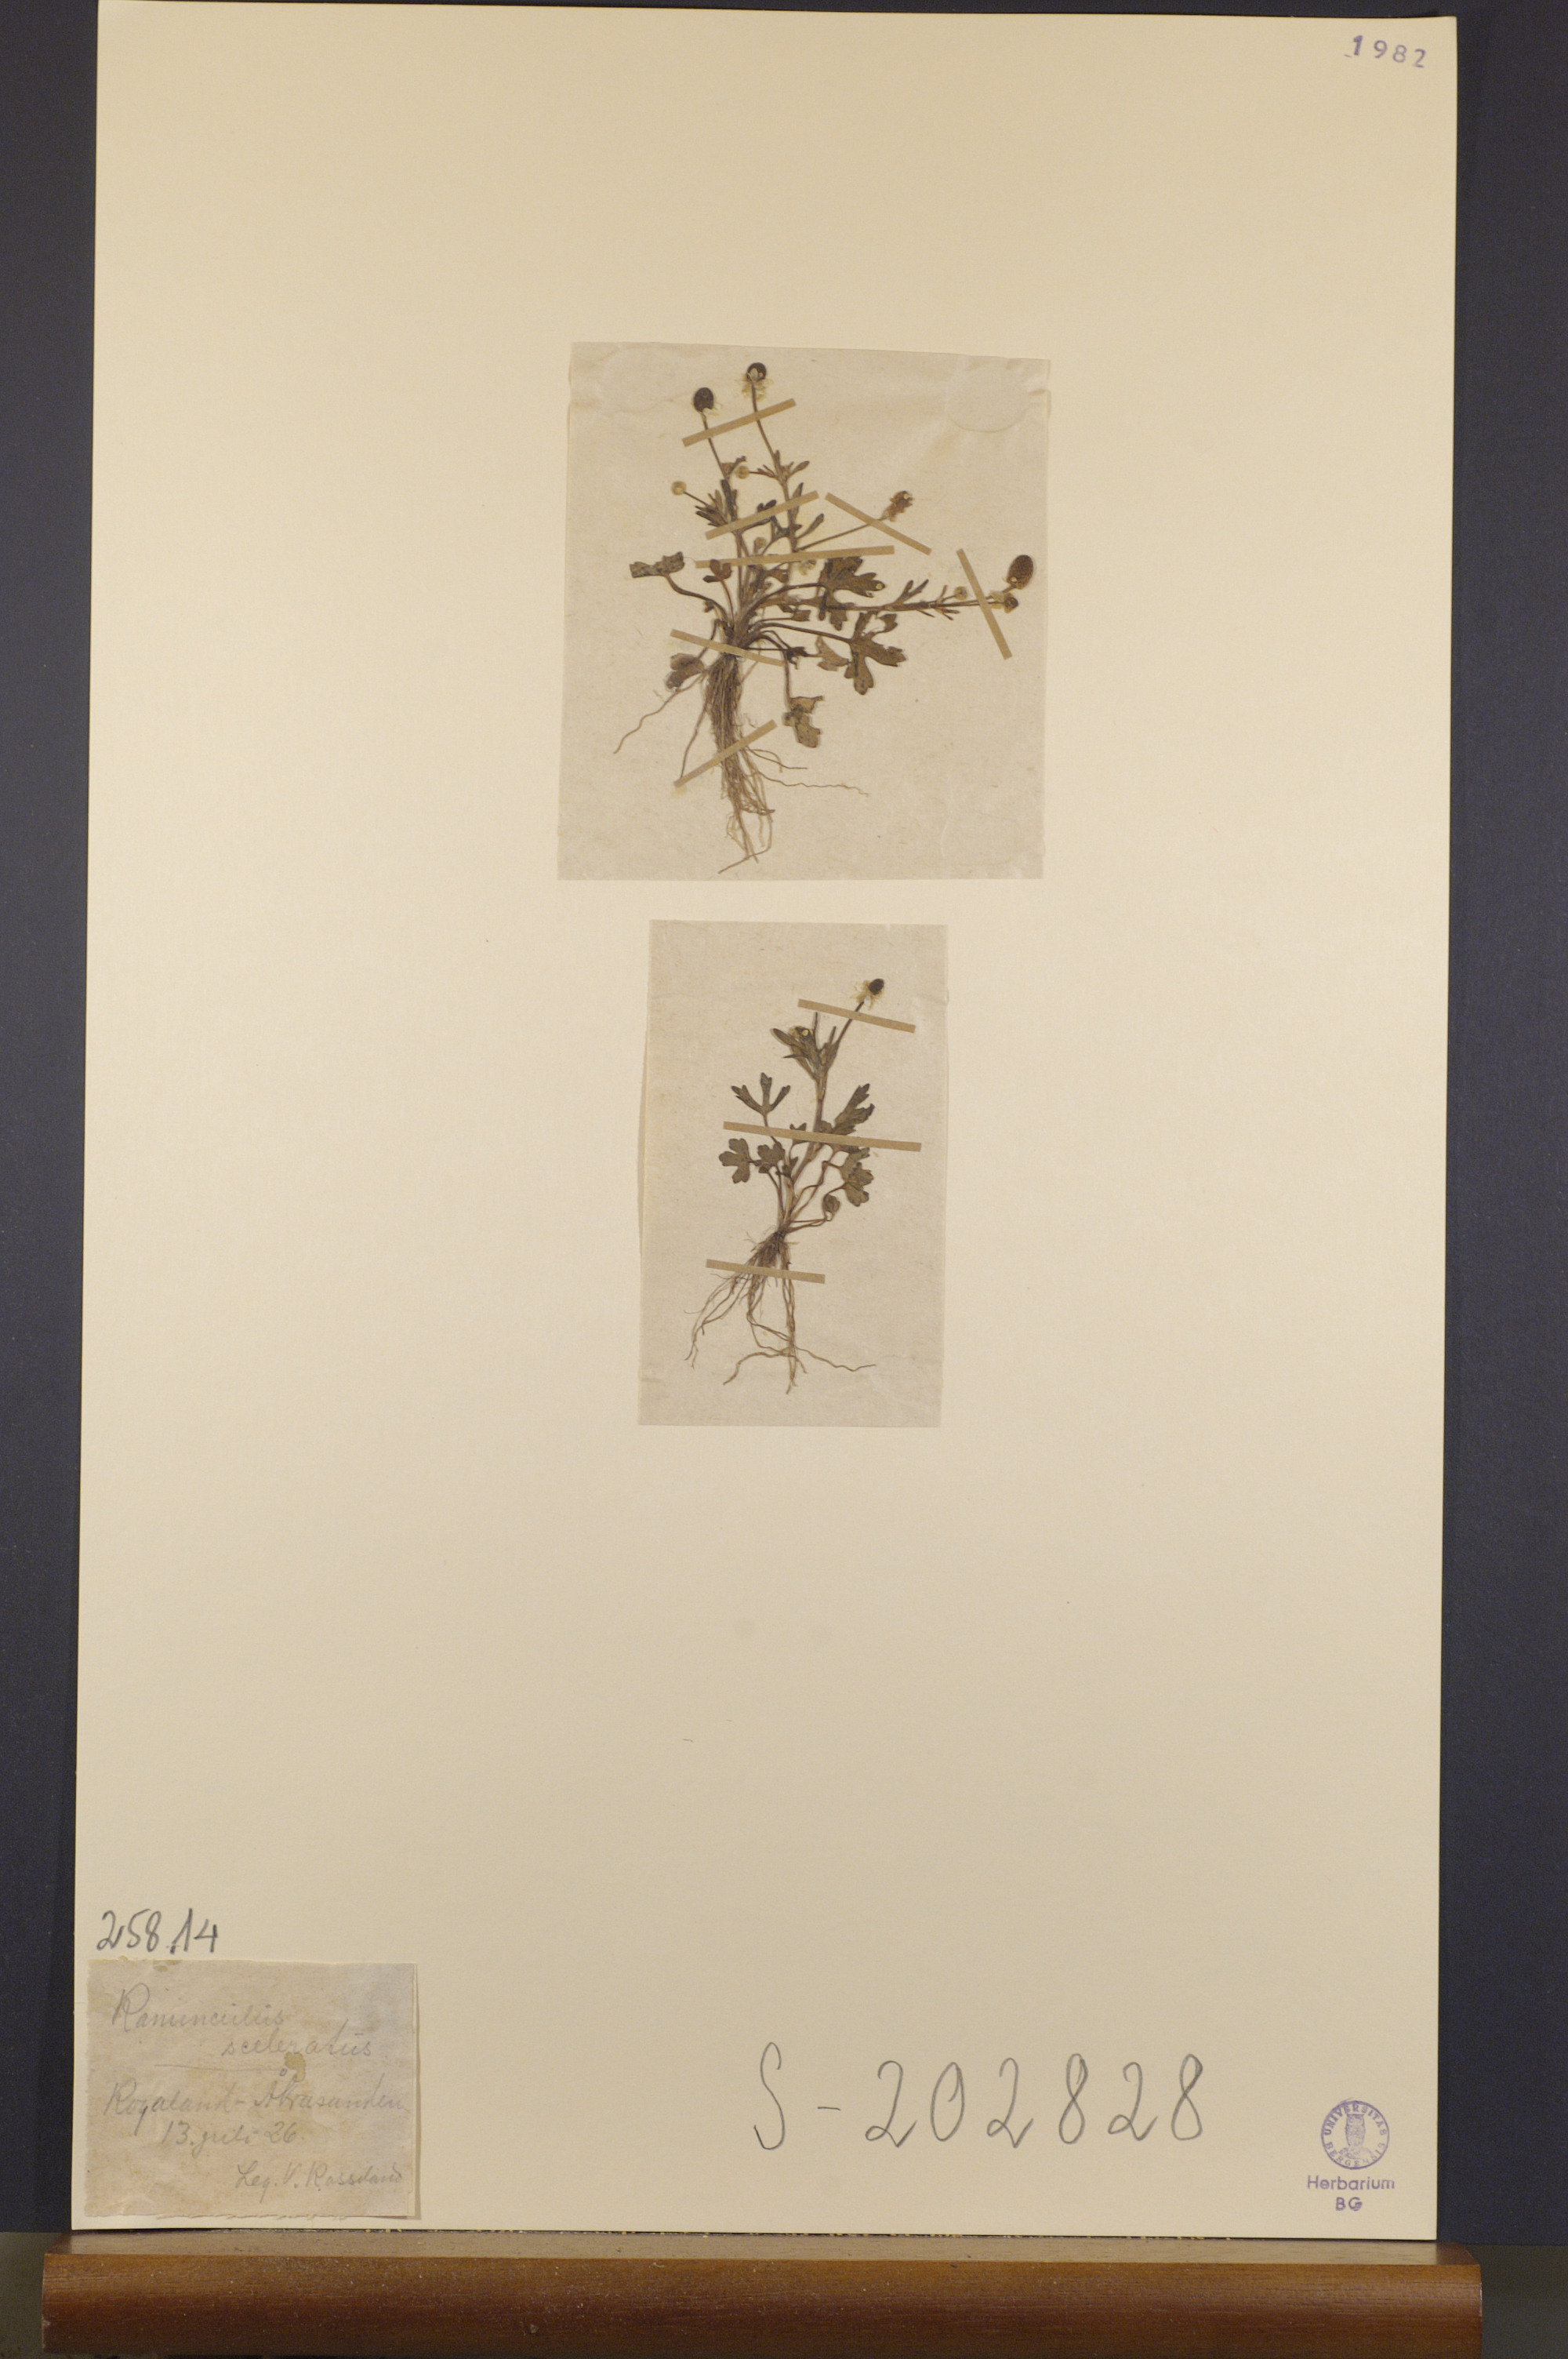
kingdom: Plantae
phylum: Tracheophyta
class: Magnoliopsida
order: Ranunculales
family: Ranunculaceae
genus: Ranunculus
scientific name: Ranunculus sceleratus
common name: Celery-leaved buttercup
